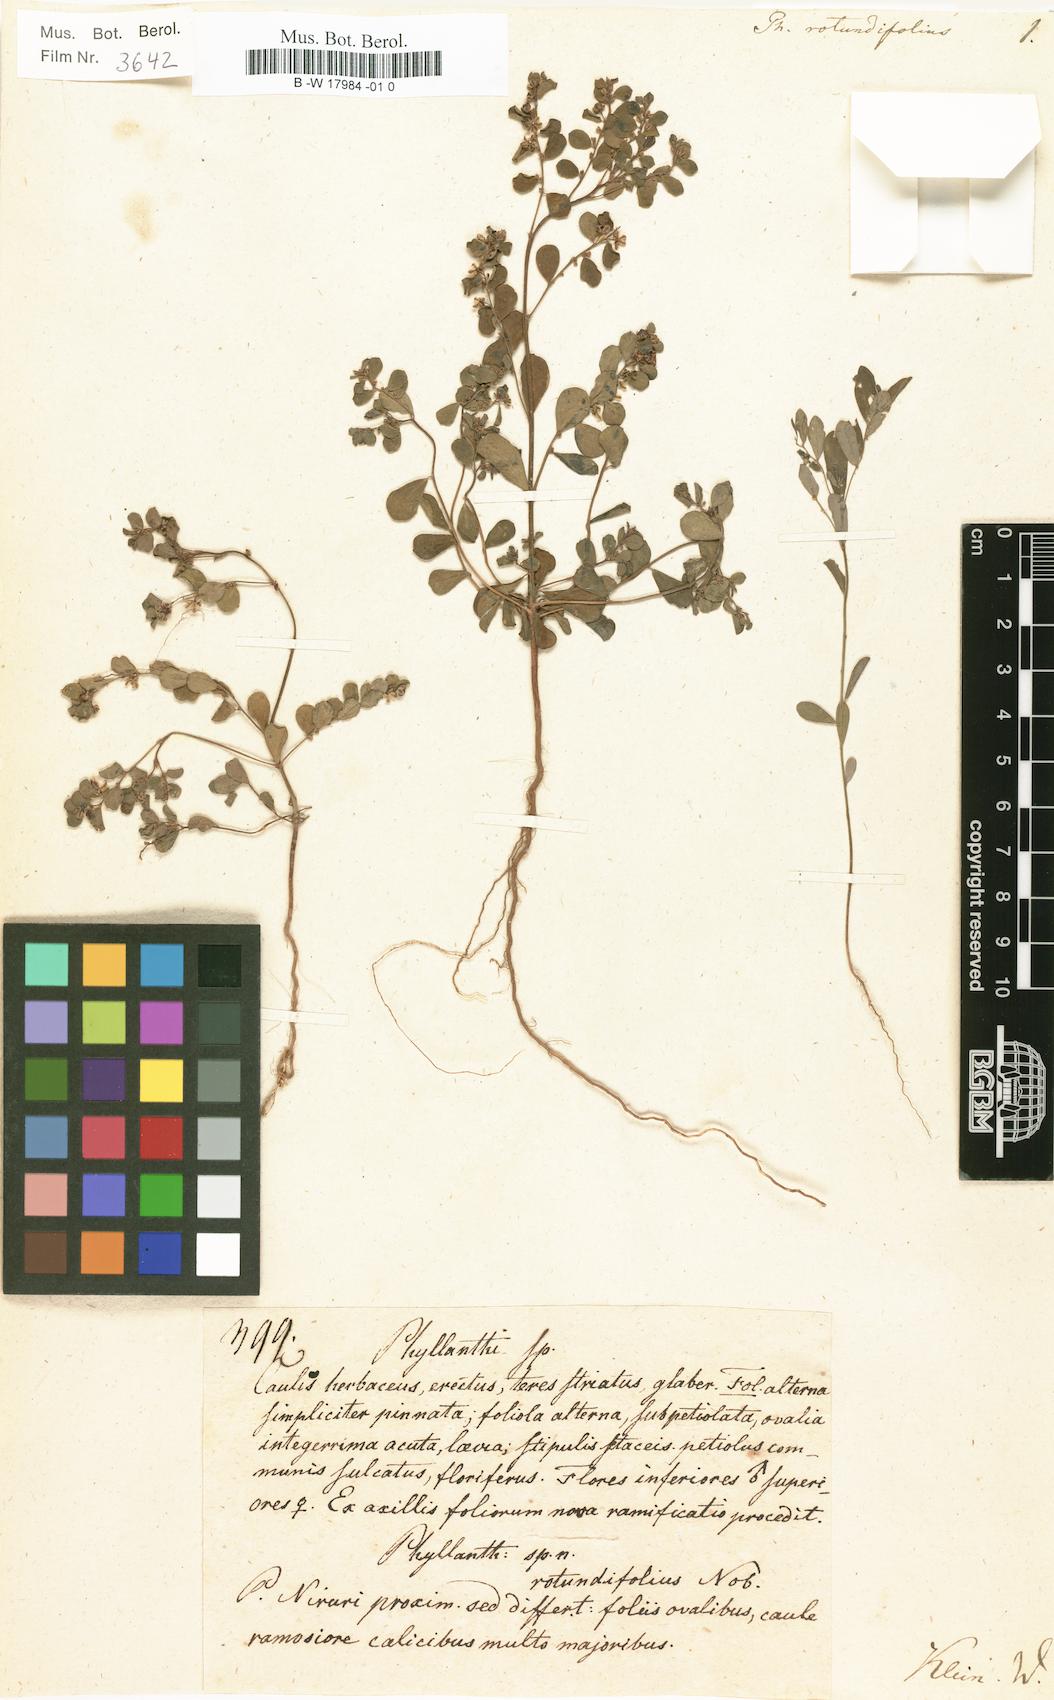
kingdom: Plantae
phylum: Tracheophyta
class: Magnoliopsida
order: Malpighiales
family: Phyllanthaceae
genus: Phyllanthus
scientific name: Phyllanthus rotundifolius
